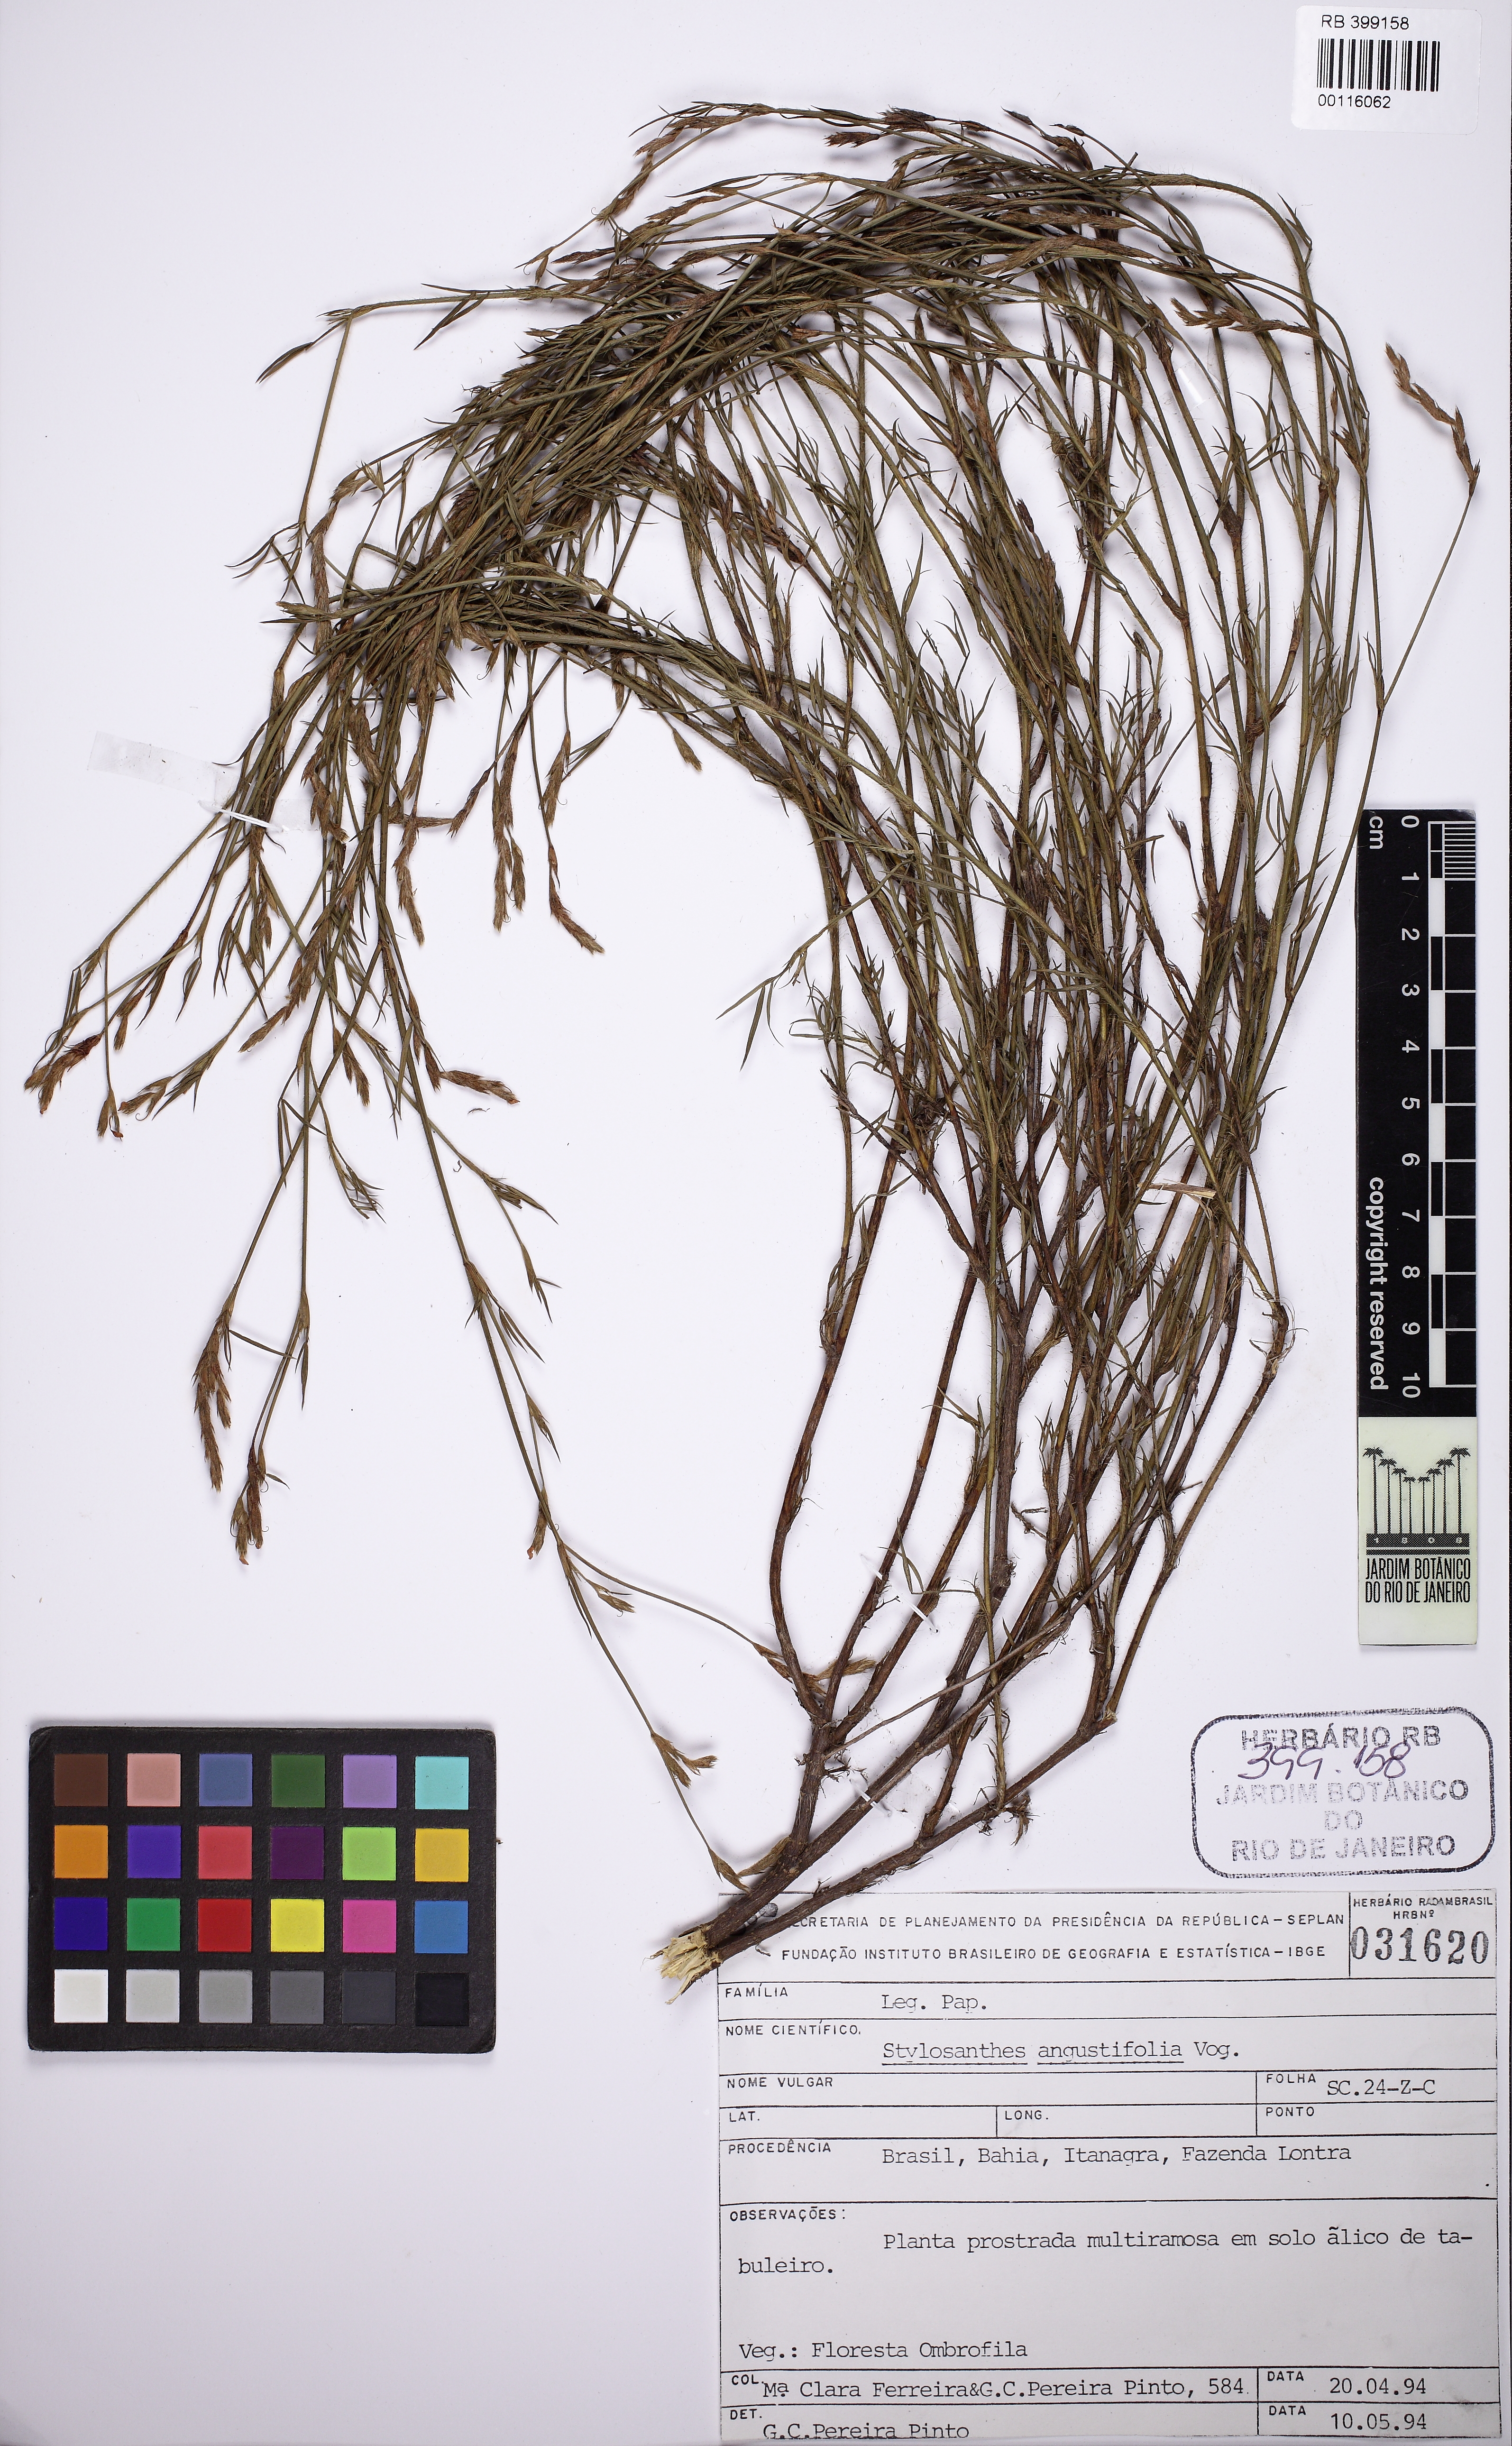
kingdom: Plantae
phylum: Tracheophyta
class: Magnoliopsida
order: Fabales
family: Fabaceae
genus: Stylosanthes
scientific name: Stylosanthes angustifolia
